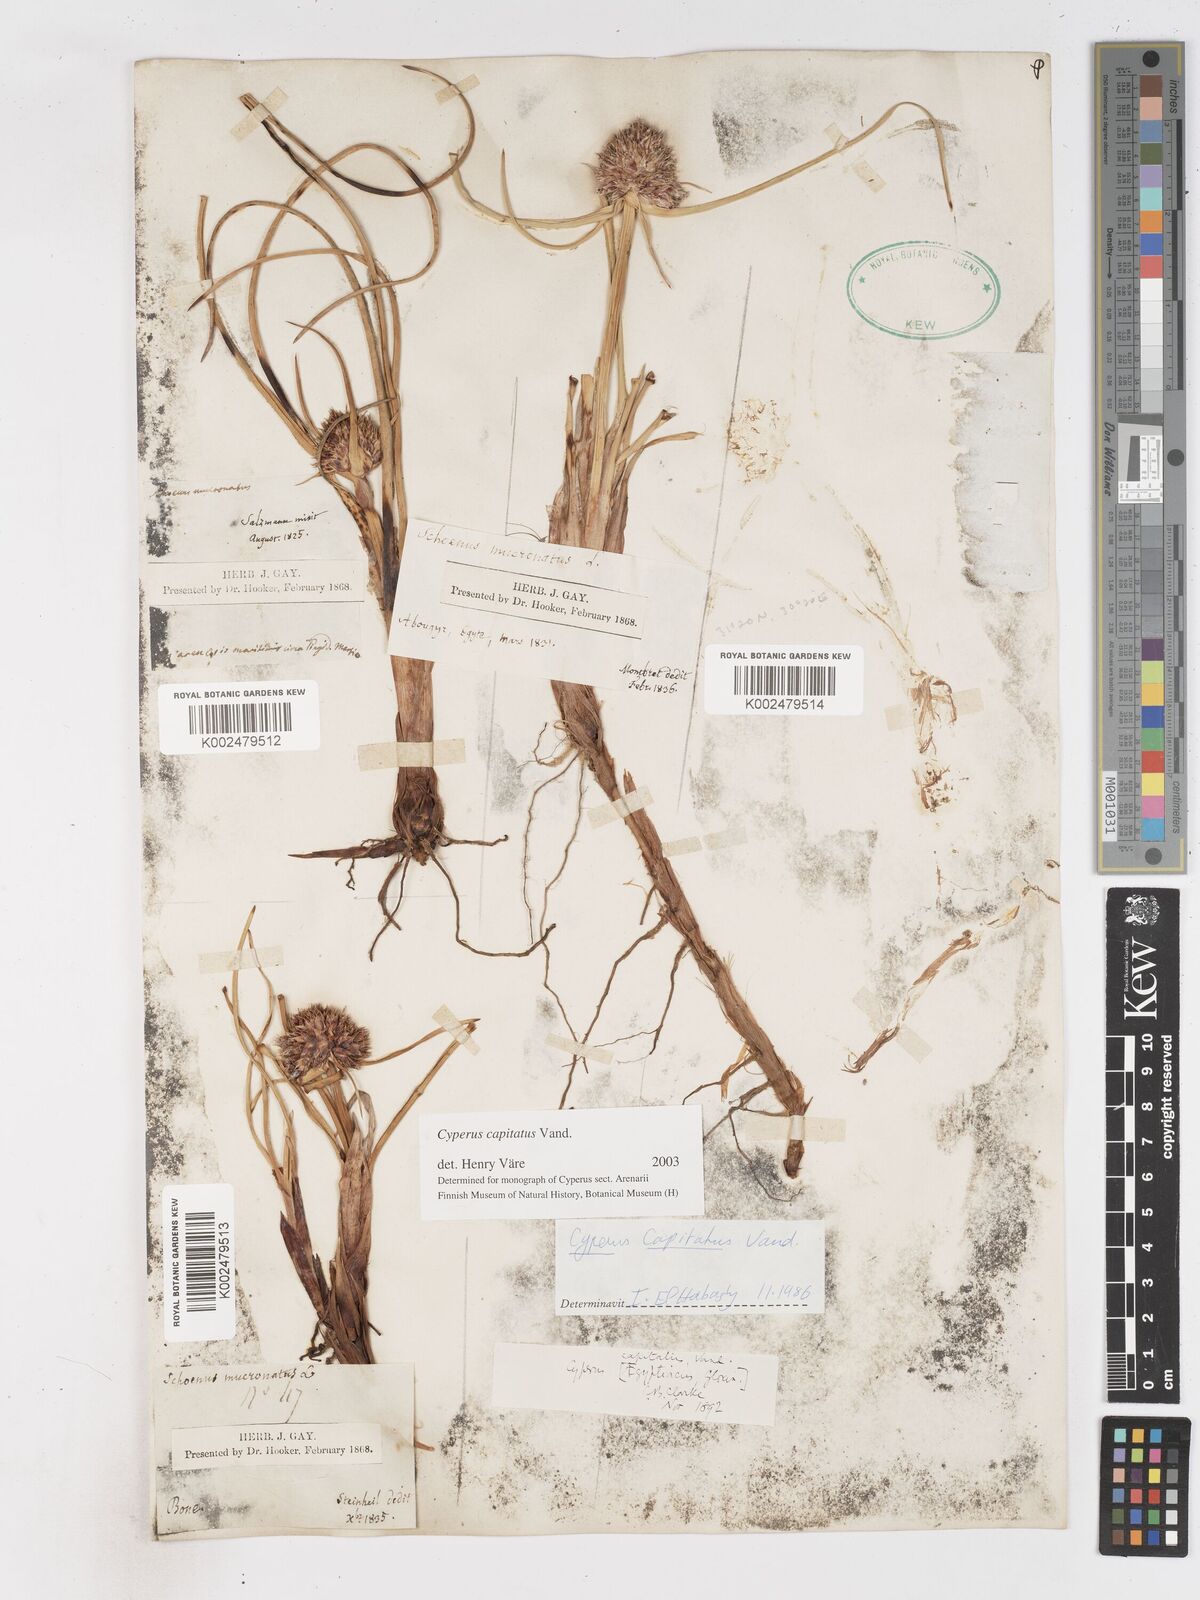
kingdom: Plantae
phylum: Tracheophyta
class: Liliopsida
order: Poales
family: Cyperaceae
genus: Cyperus
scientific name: Cyperus capitatus
